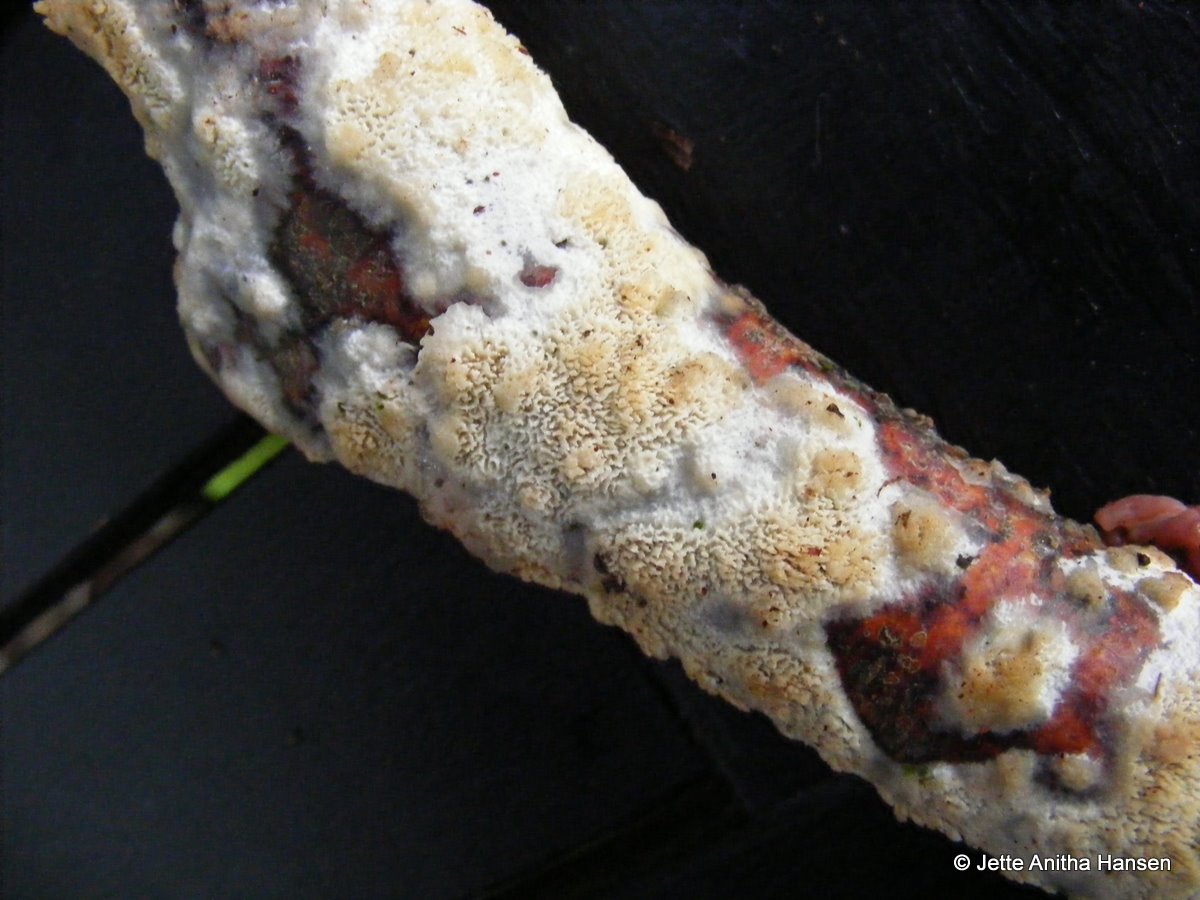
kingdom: Fungi
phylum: Basidiomycota
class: Agaricomycetes
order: Hymenochaetales
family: Schizoporaceae
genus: Schizopora
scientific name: Schizopora paradoxa
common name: hvid tandsvamp
